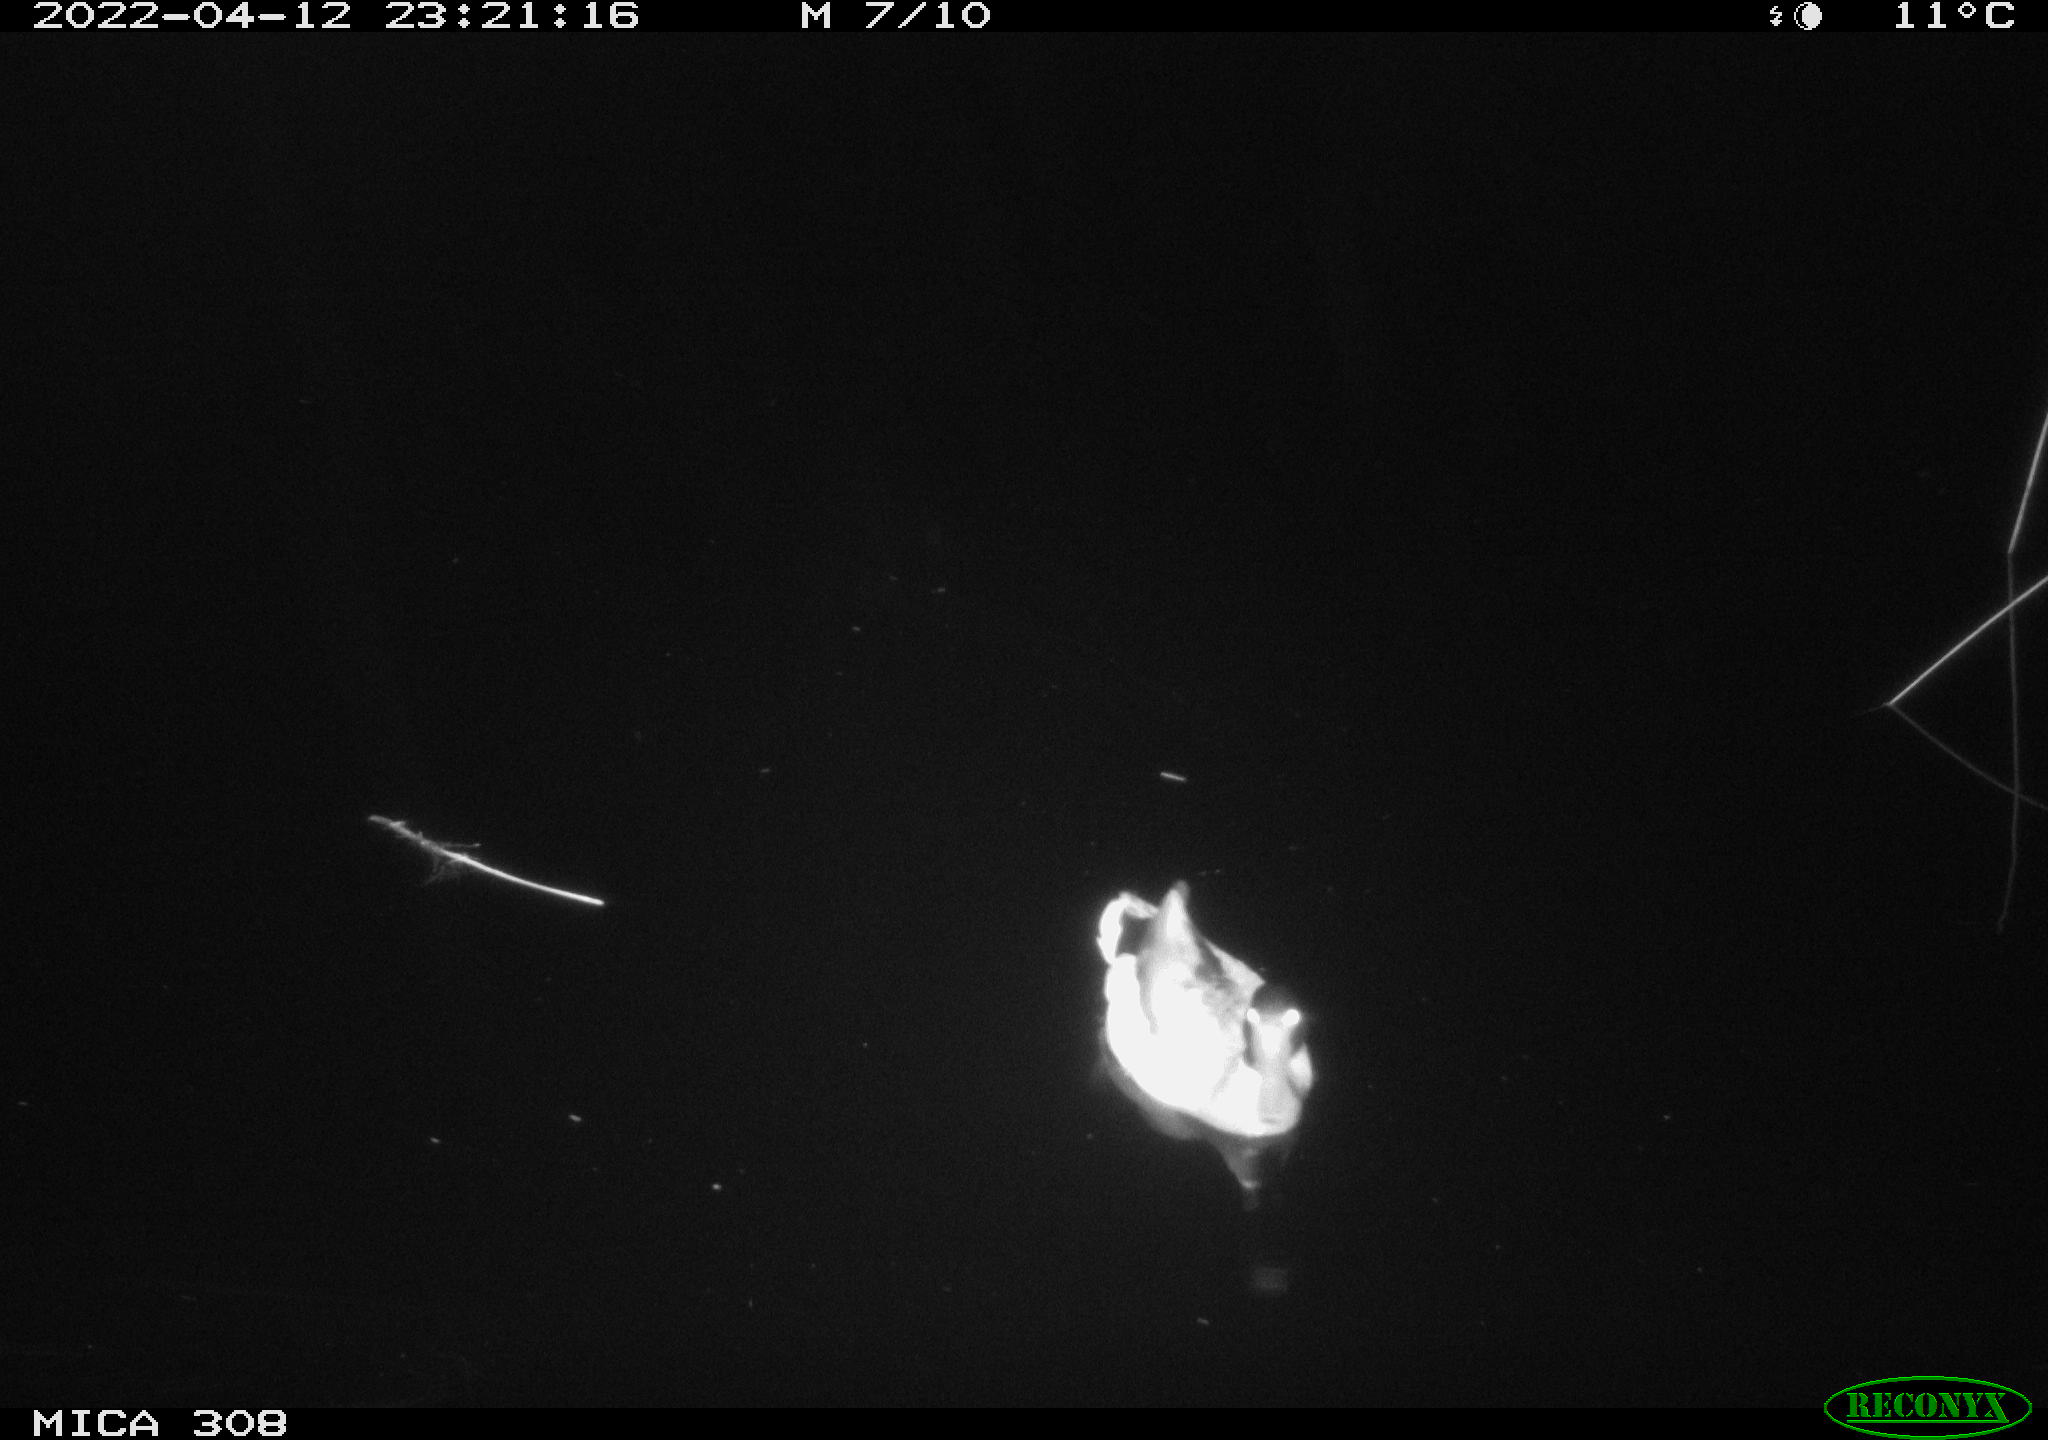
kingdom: Animalia
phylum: Chordata
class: Aves
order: Anseriformes
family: Anatidae
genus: Anas
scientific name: Anas platyrhynchos
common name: Mallard
